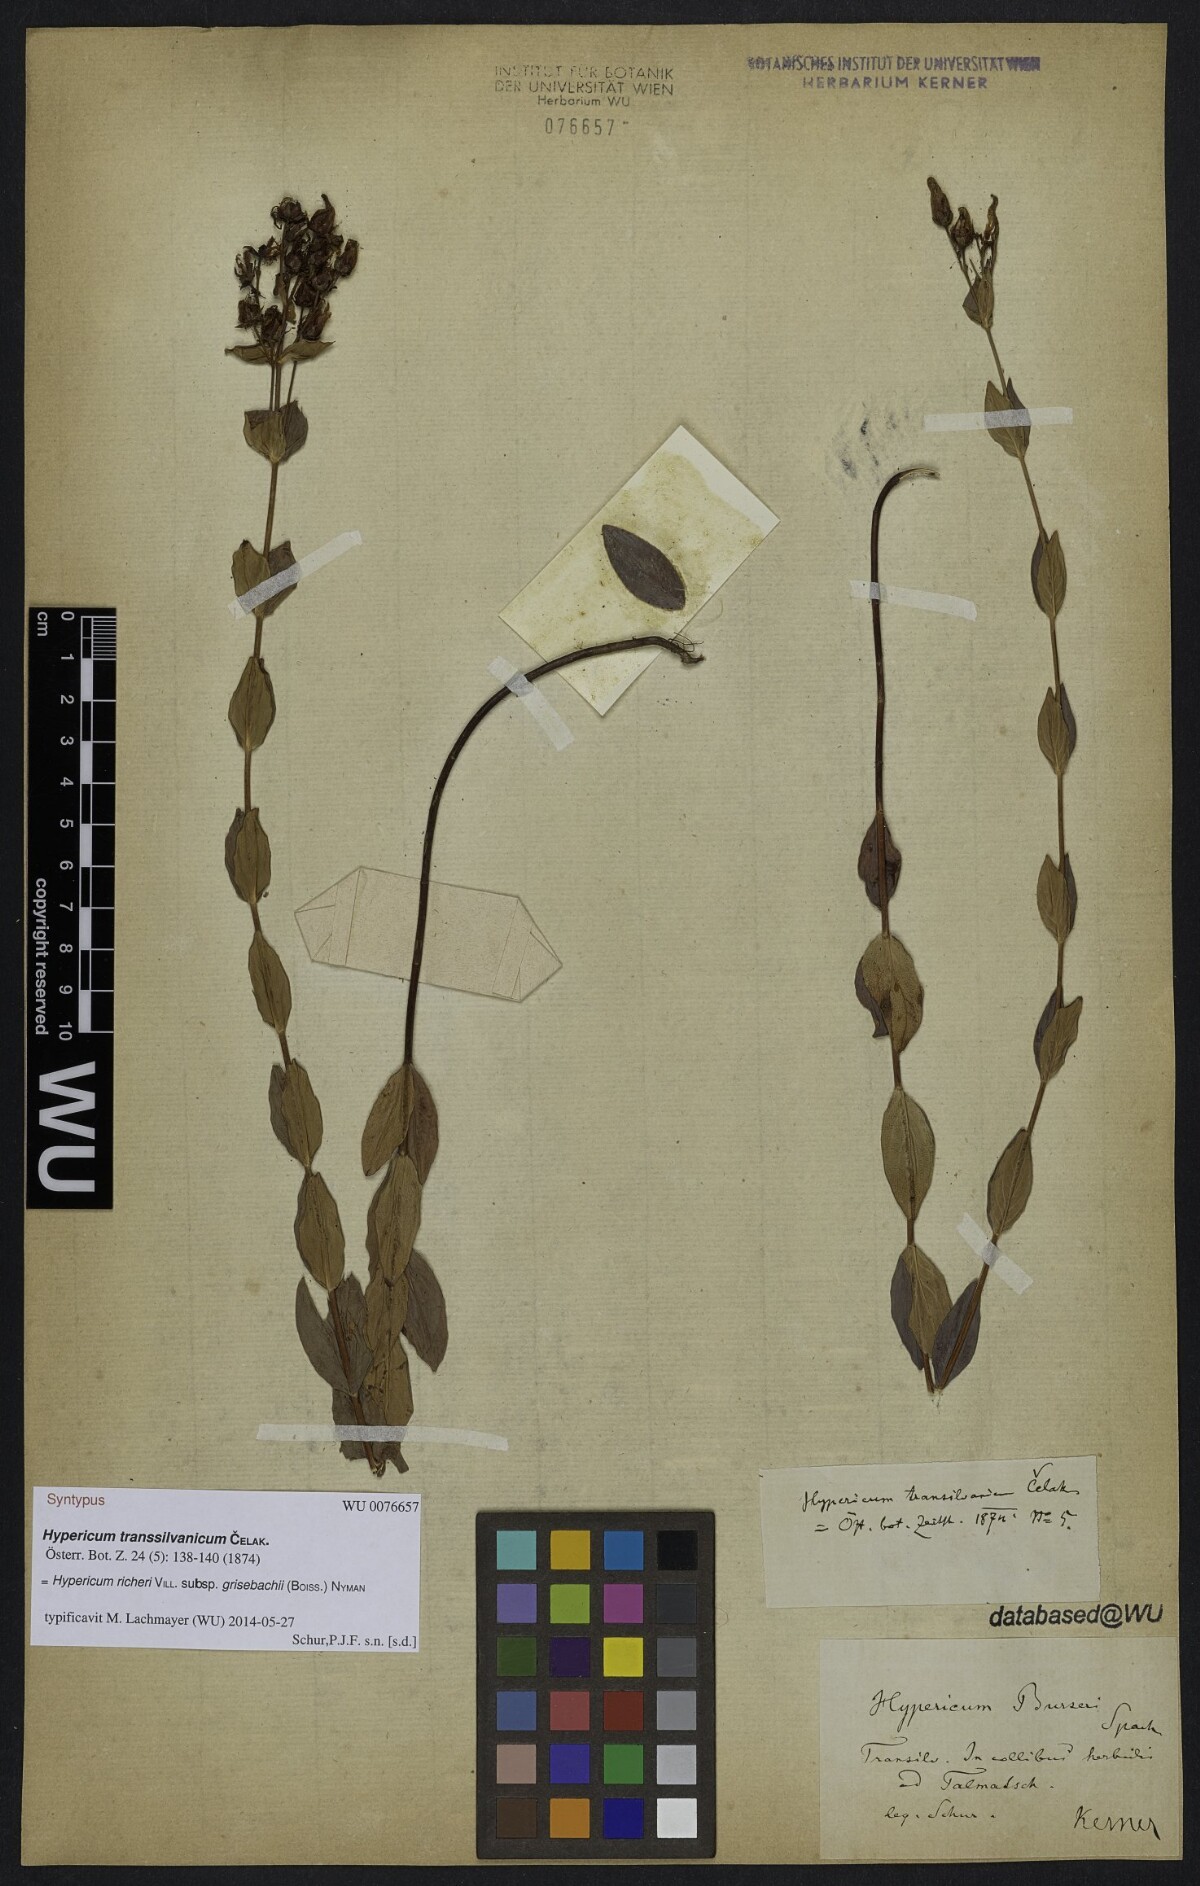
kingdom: Plantae
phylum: Tracheophyta
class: Magnoliopsida
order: Malpighiales
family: Hypericaceae
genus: Hypericum
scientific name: Hypericum richeri
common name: Alpine st john's-wort
